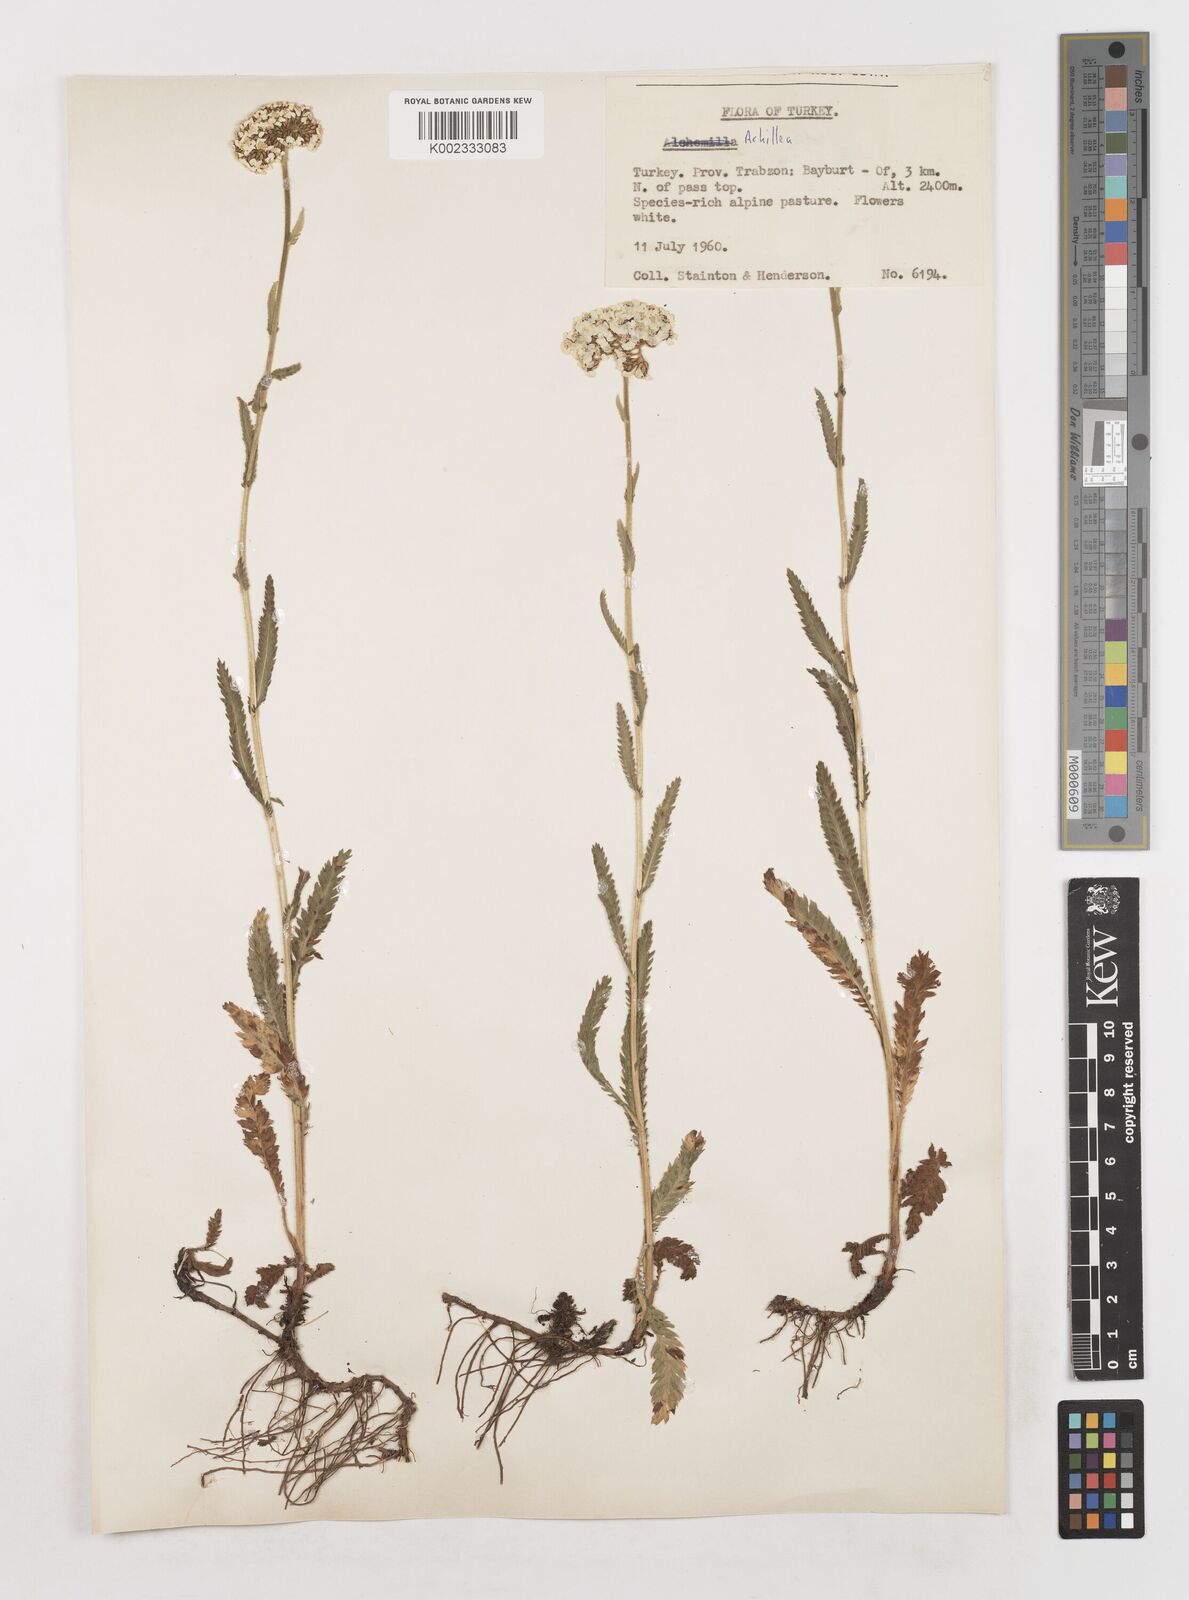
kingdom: Plantae
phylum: Tracheophyta
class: Magnoliopsida
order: Asterales
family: Asteraceae
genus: Achillea
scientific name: Achillea
